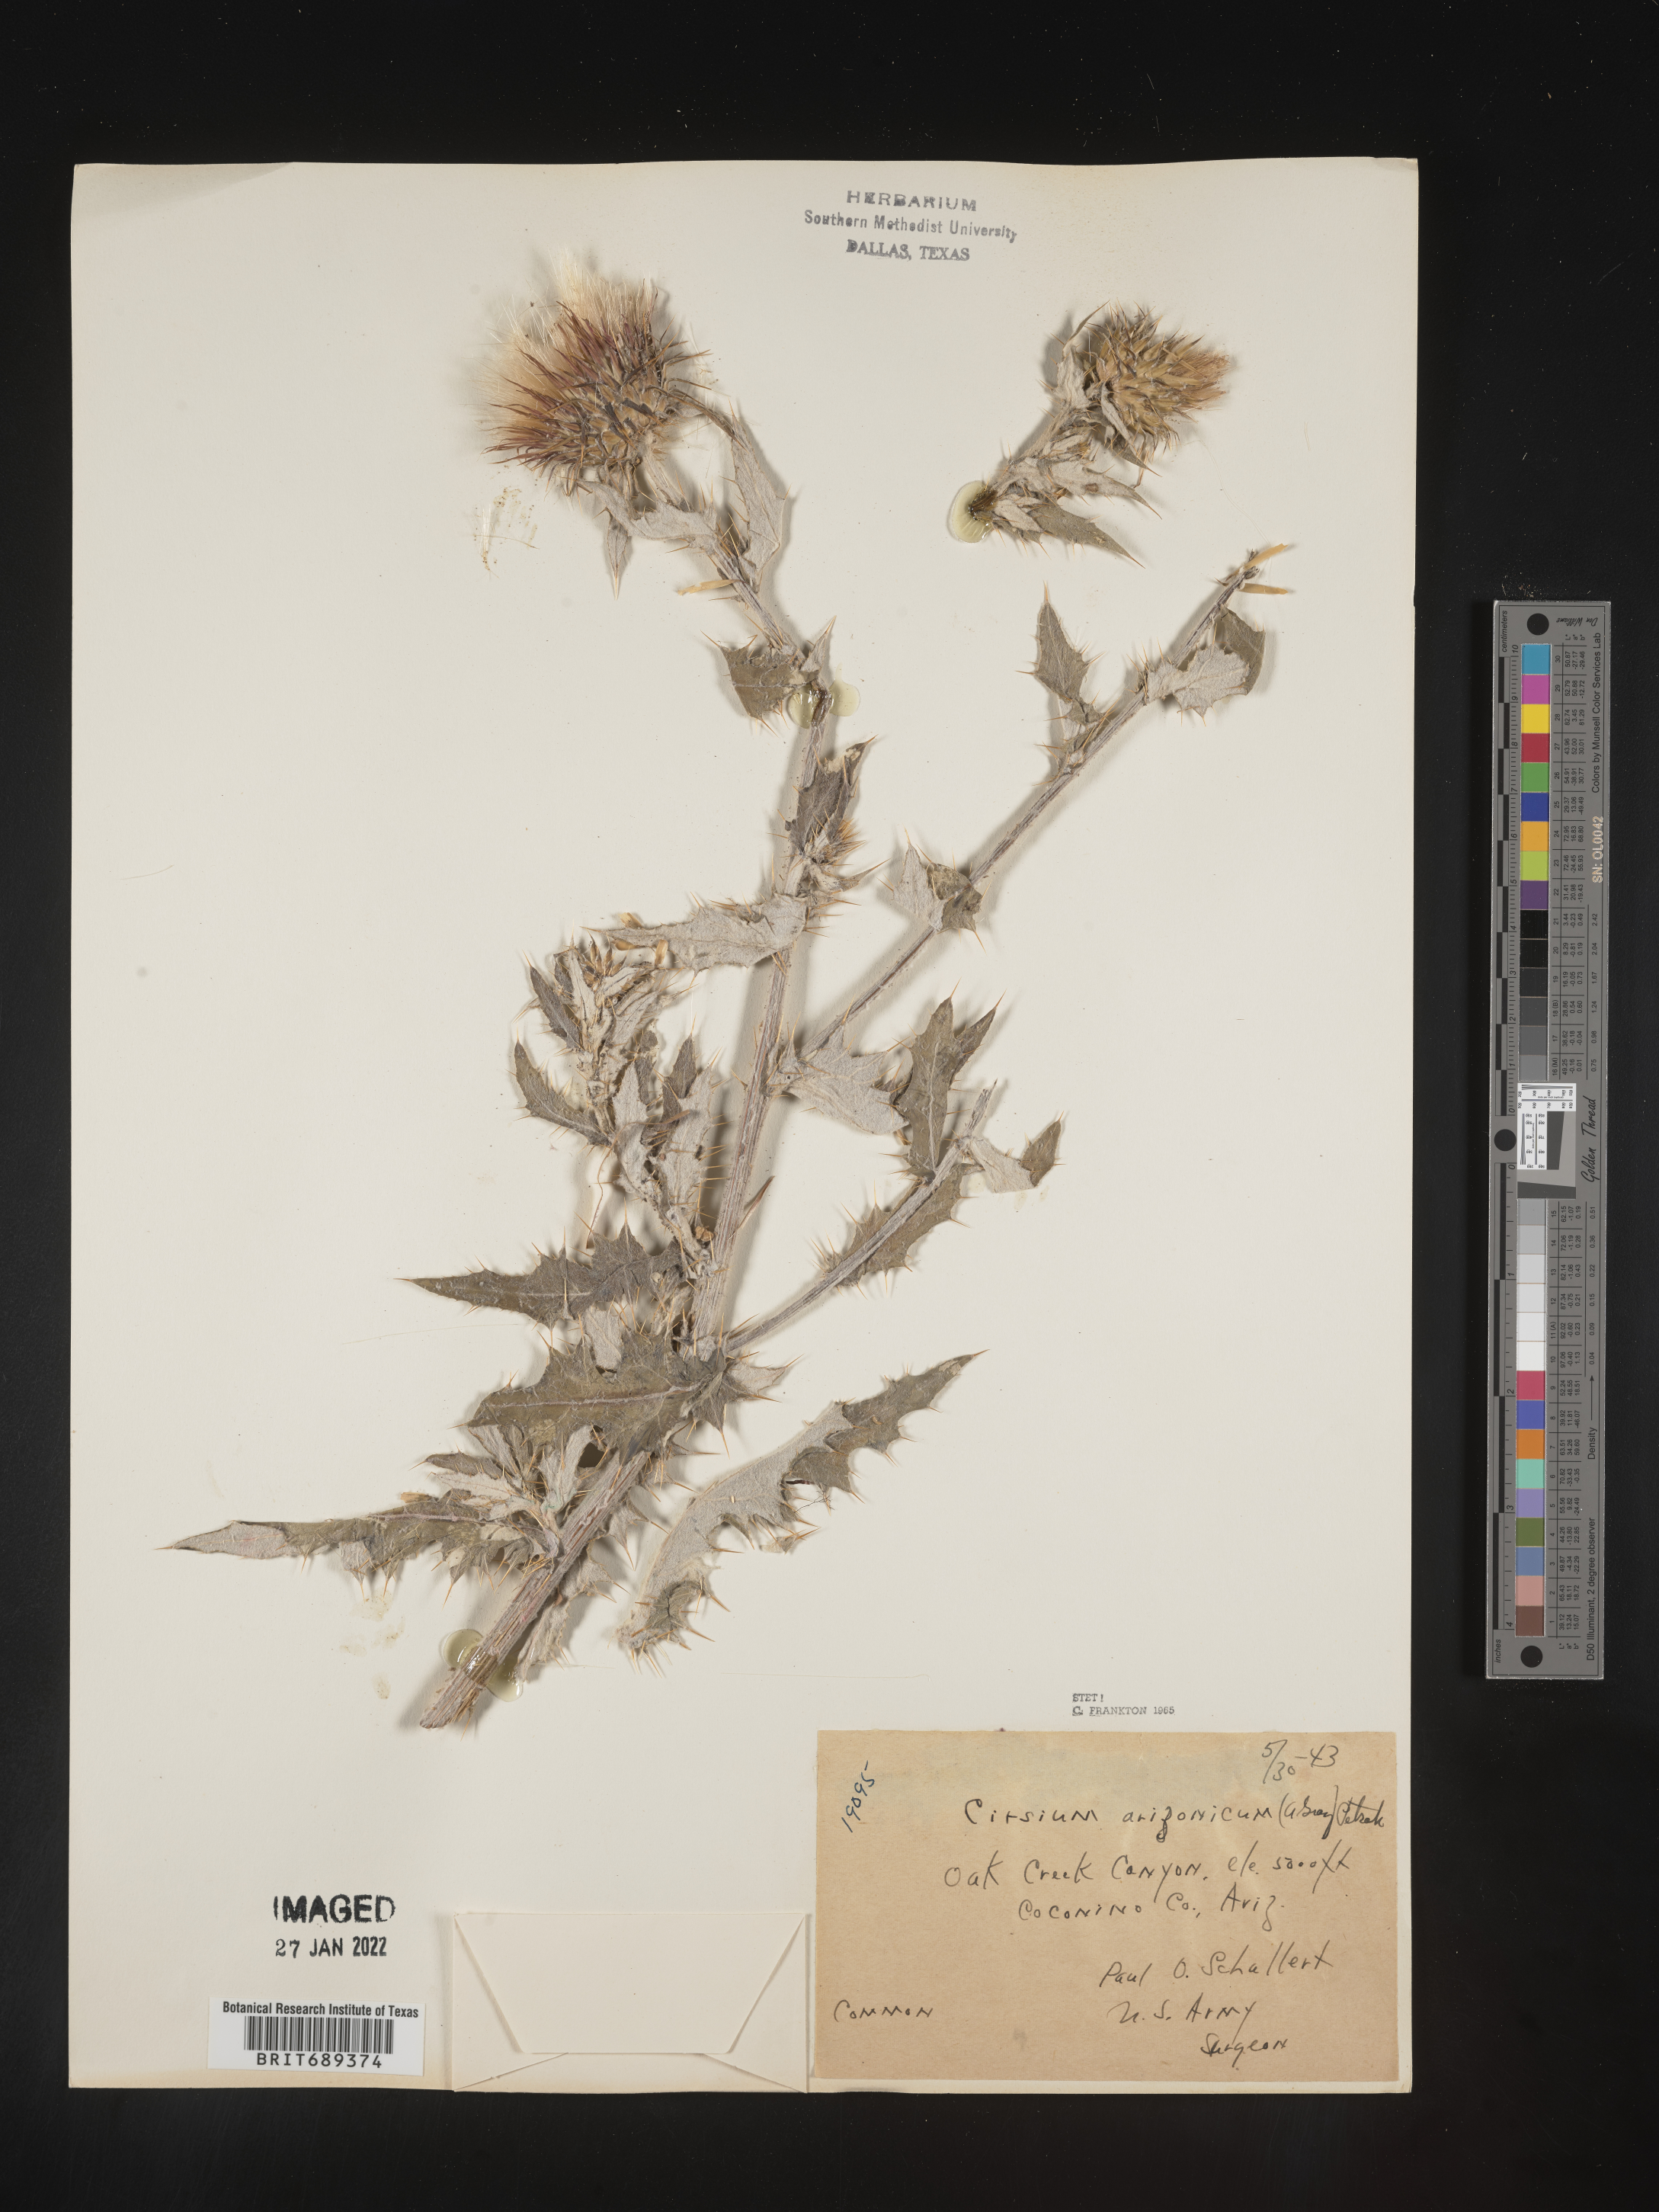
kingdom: Plantae
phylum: Tracheophyta
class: Magnoliopsida
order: Asterales
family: Asteraceae
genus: Cirsium
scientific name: Cirsium arizonicum
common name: Arizona thistle
